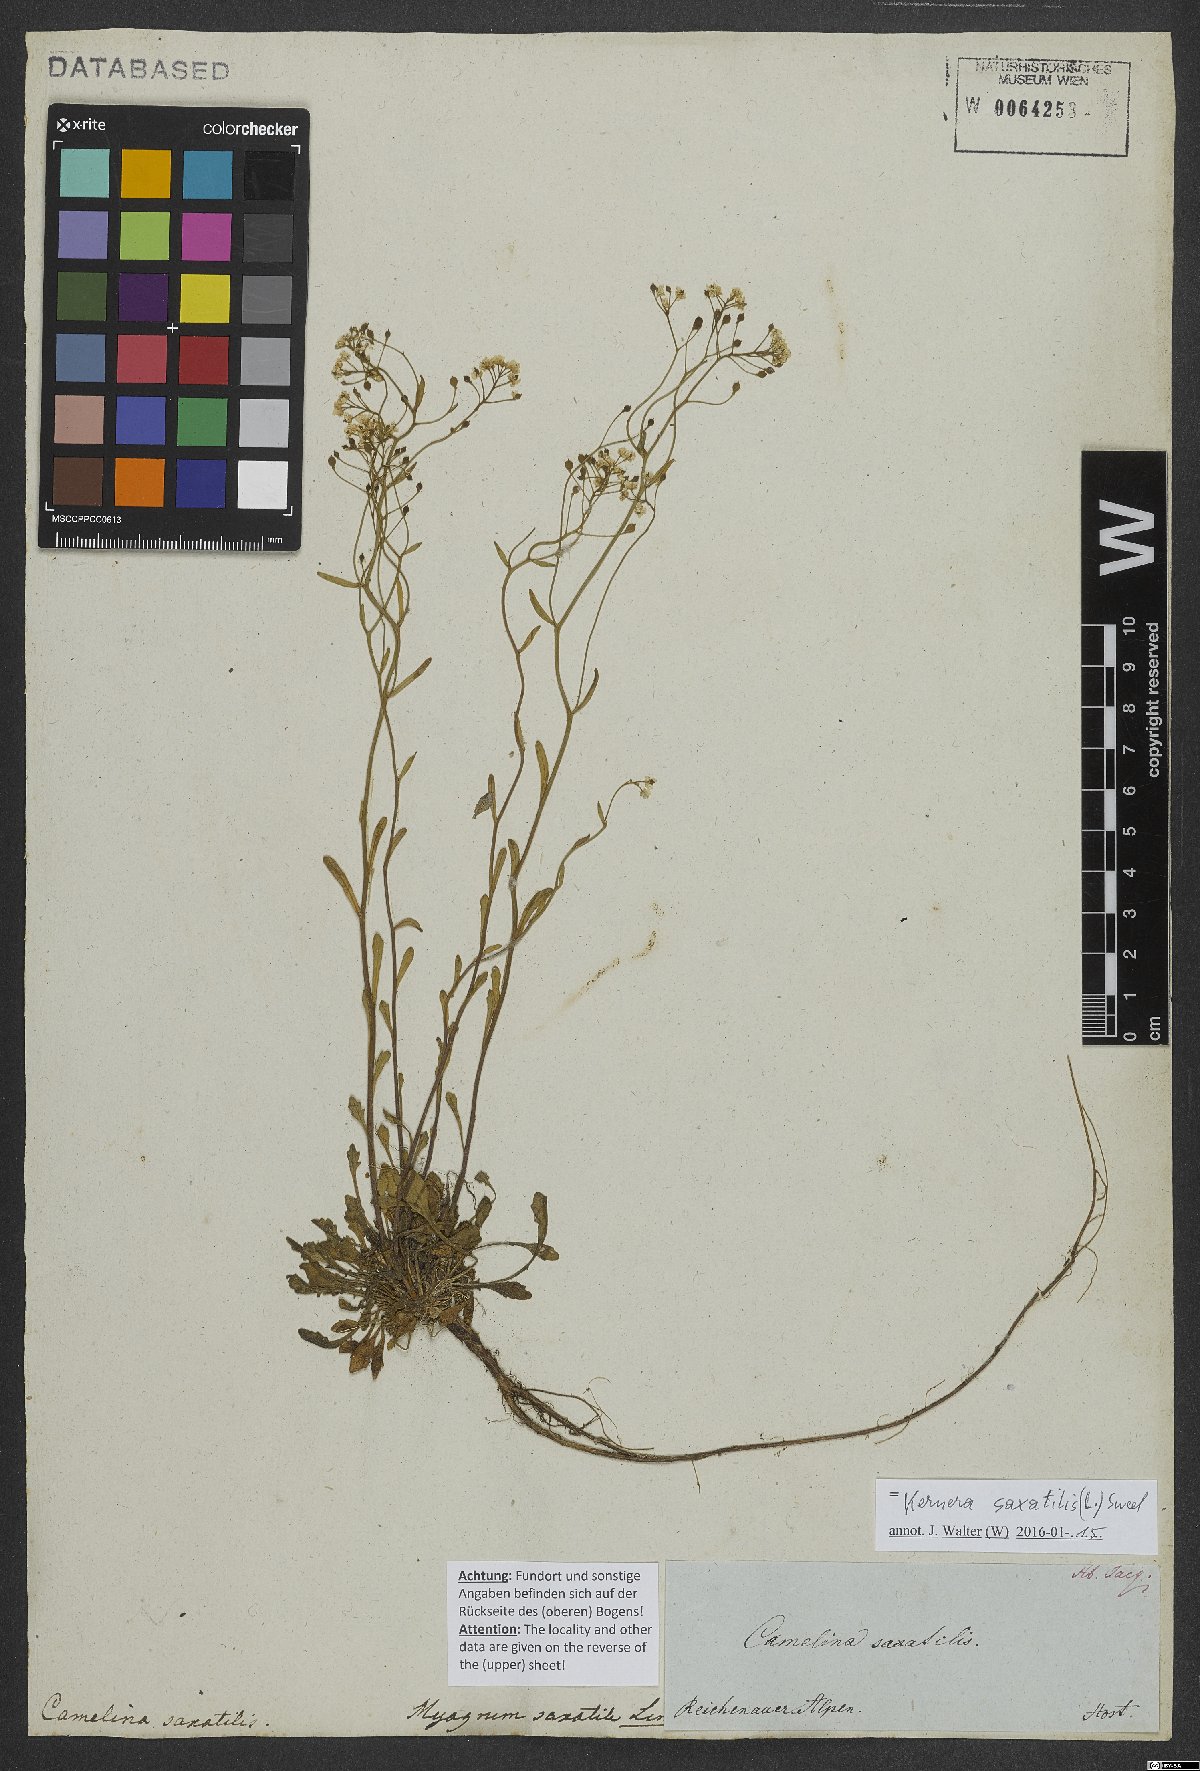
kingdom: Plantae
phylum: Tracheophyta
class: Magnoliopsida
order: Brassicales
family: Brassicaceae
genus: Kernera
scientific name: Kernera saxatilis
